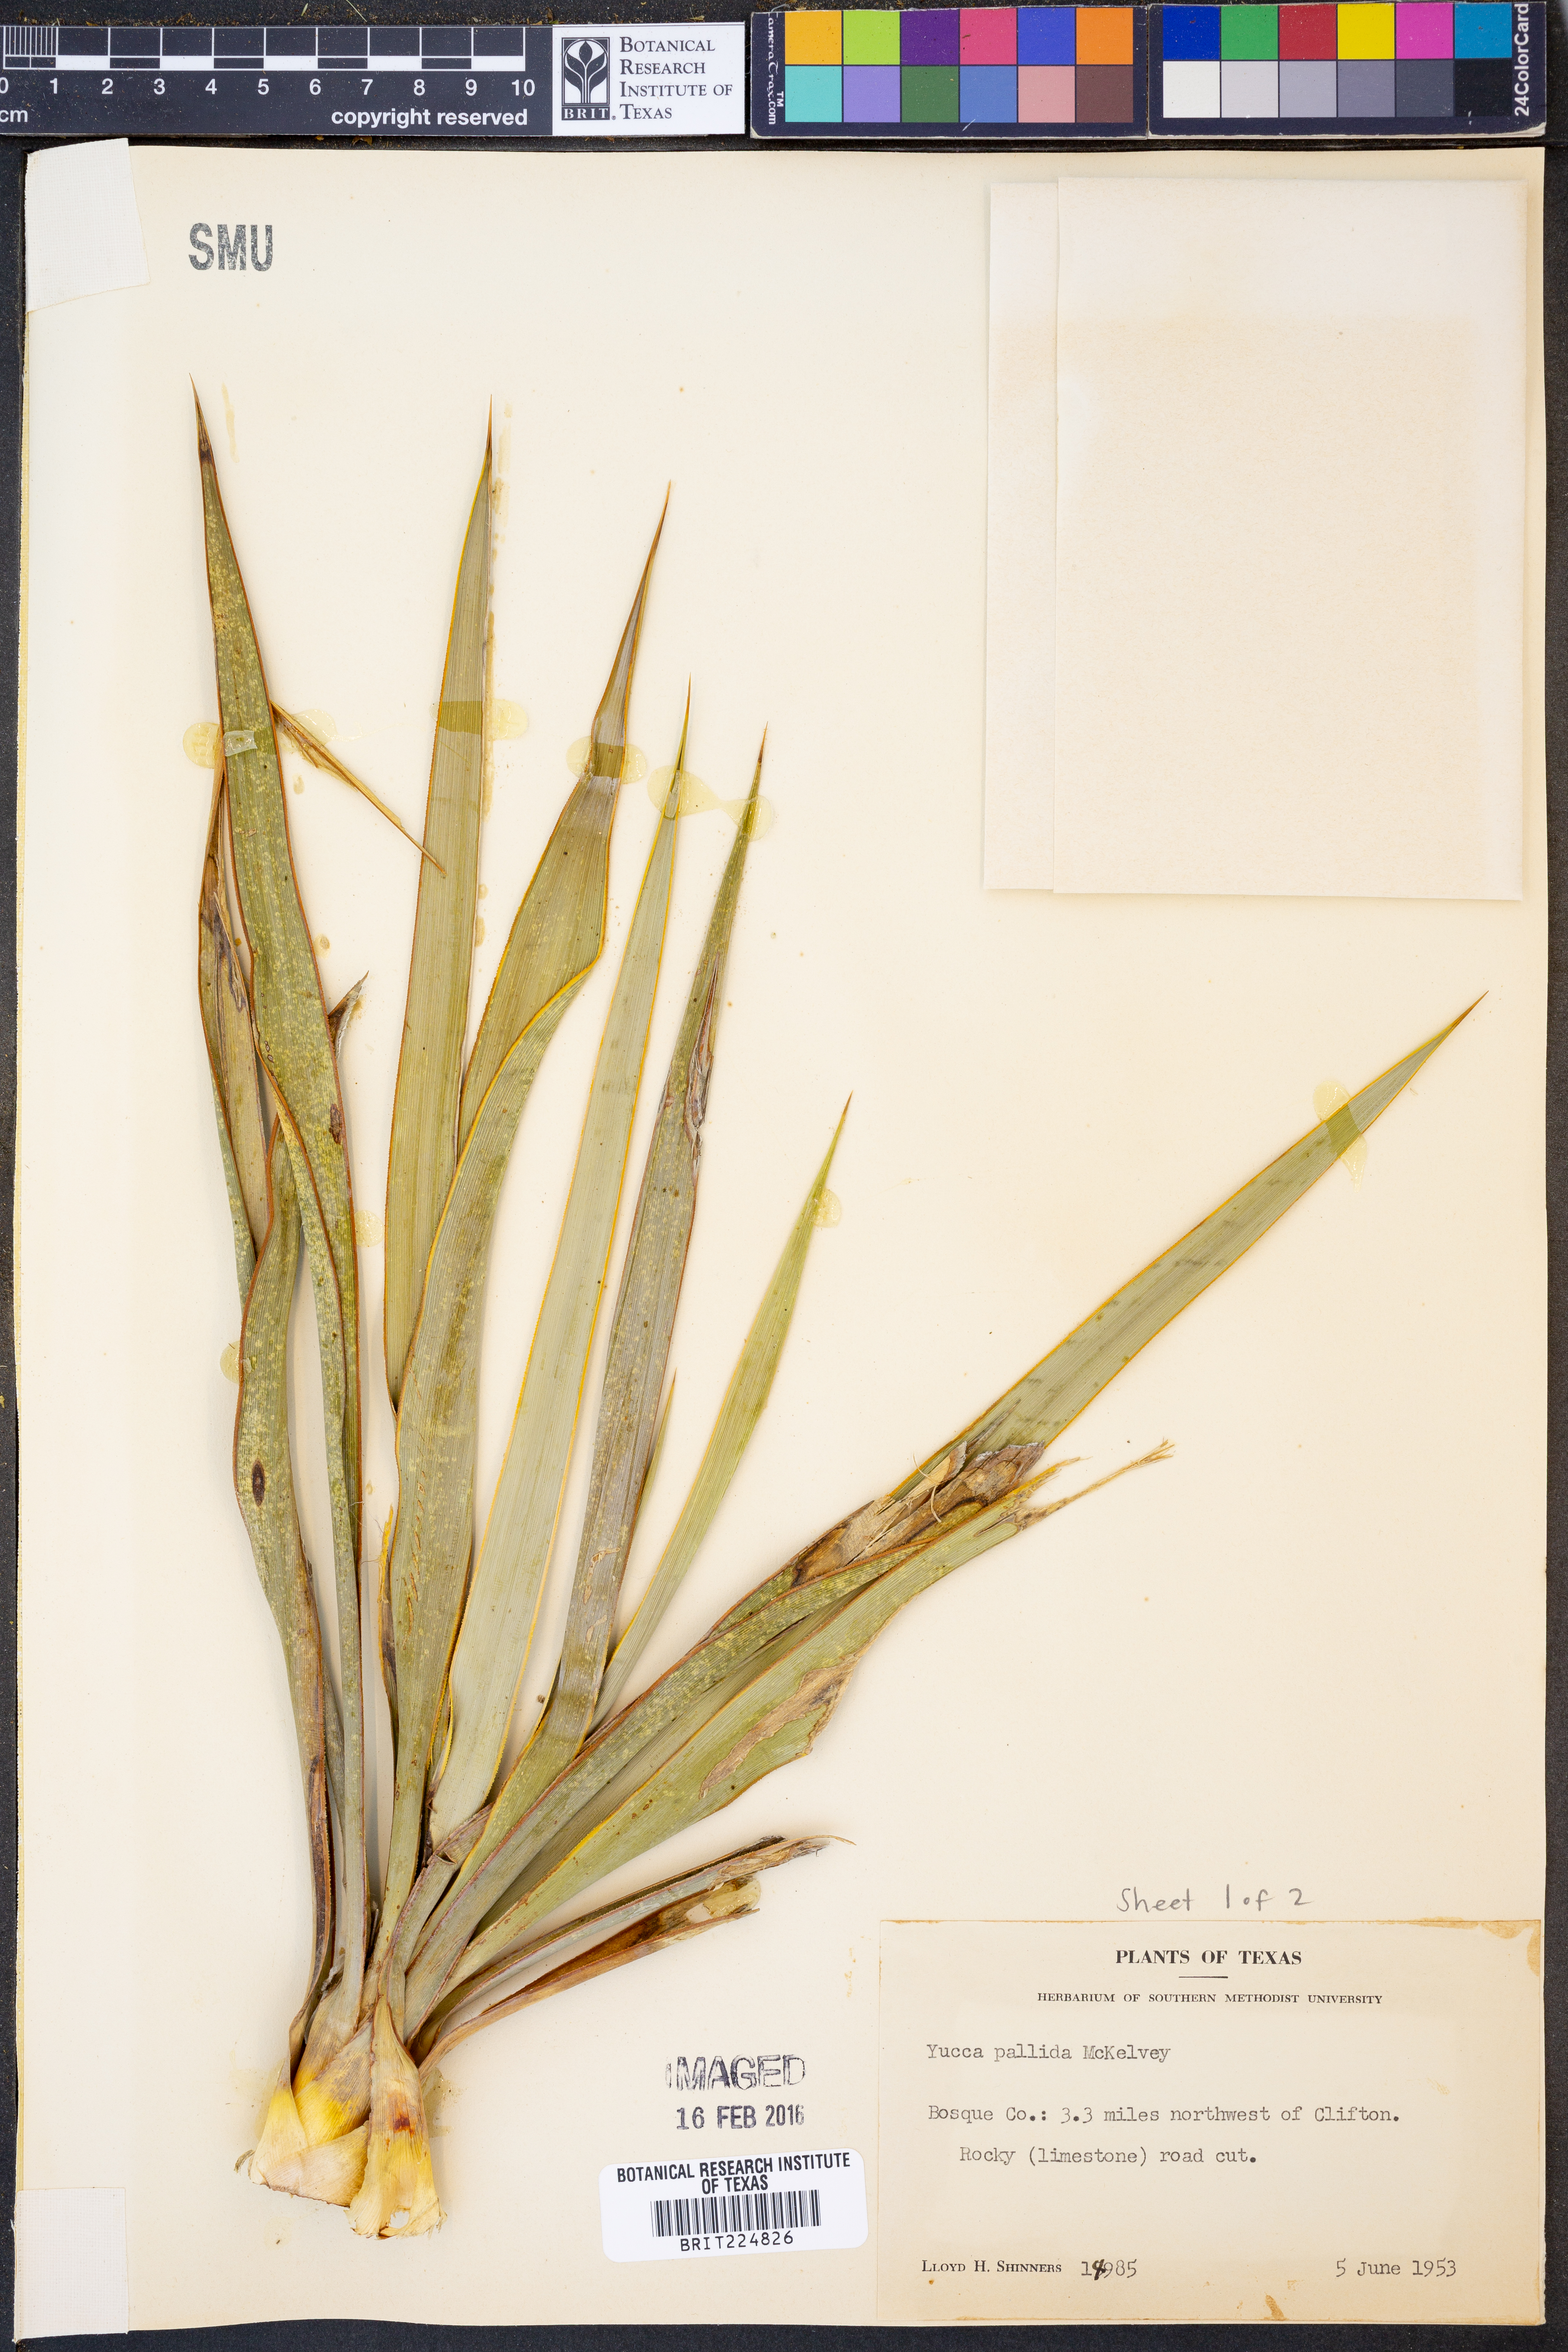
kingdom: Plantae
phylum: Tracheophyta
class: Liliopsida
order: Asparagales
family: Asparagaceae
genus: Yucca
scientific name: Yucca pallida
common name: Pale leaf yucca
